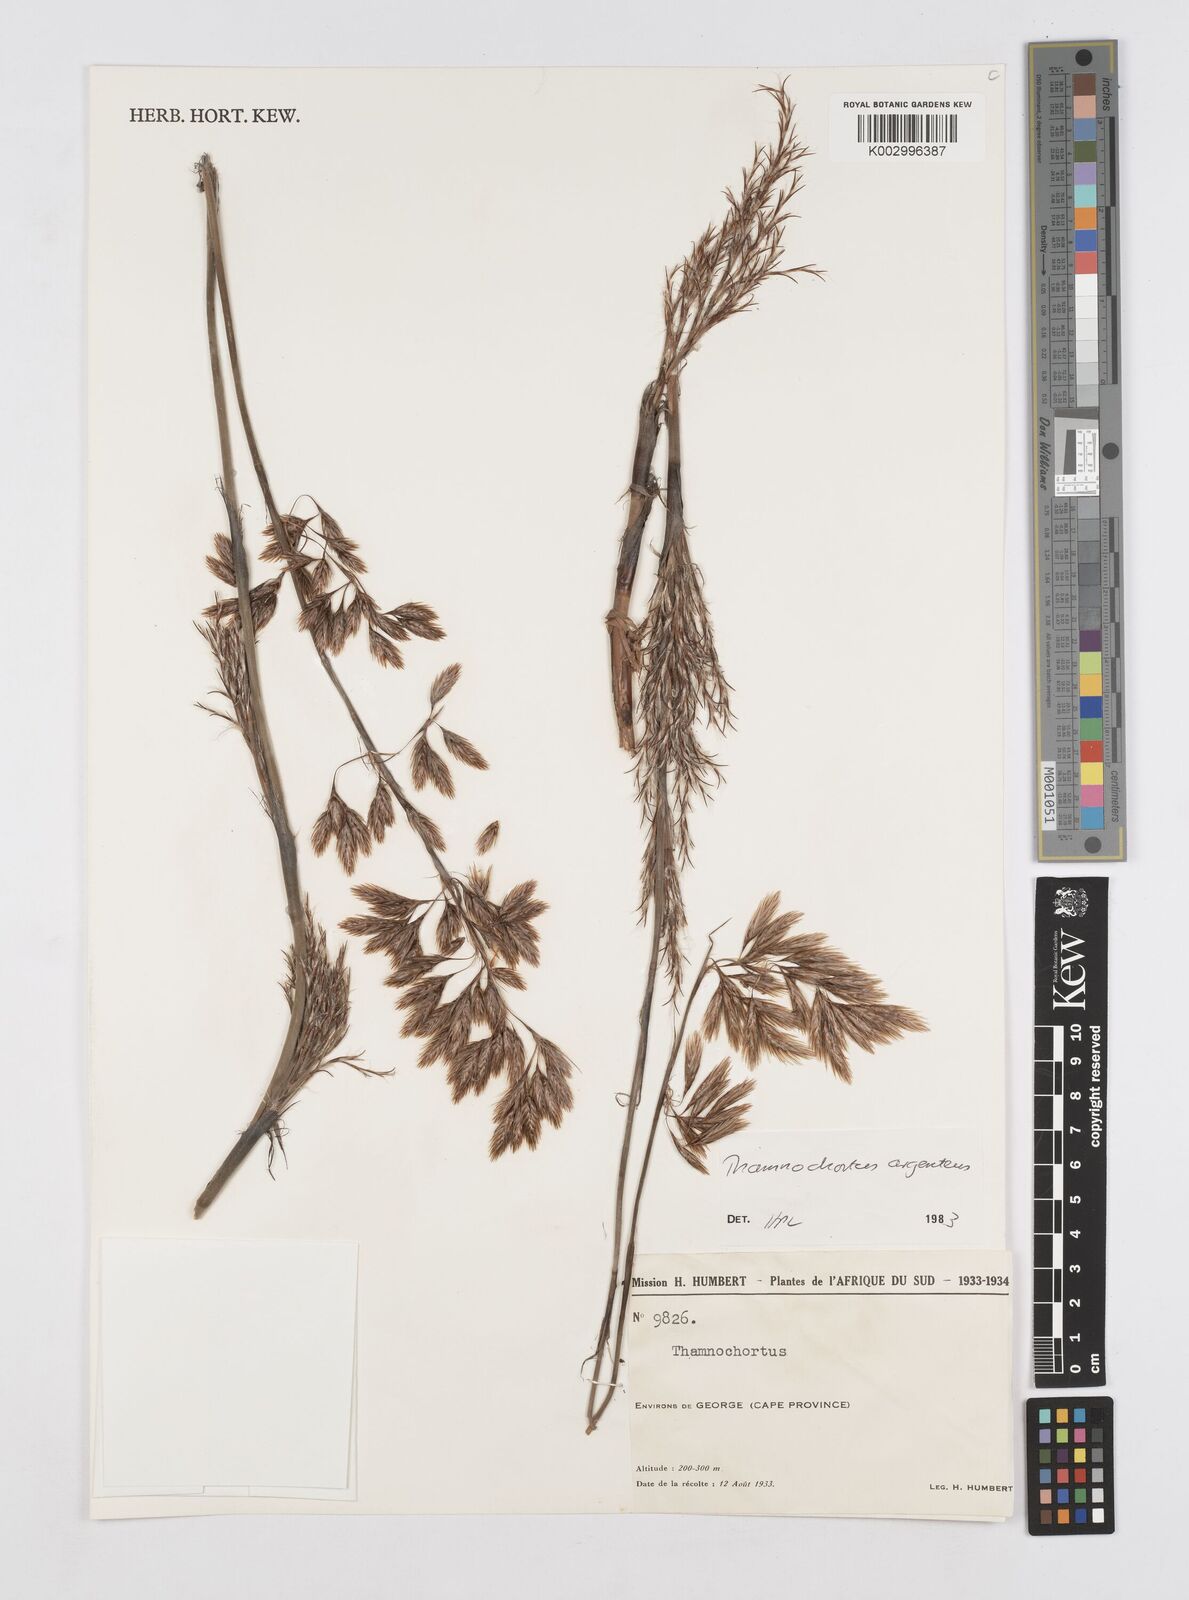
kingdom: Plantae
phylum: Tracheophyta
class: Liliopsida
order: Poales
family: Restionaceae
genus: Hypodiscus
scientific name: Hypodiscus argenteus
